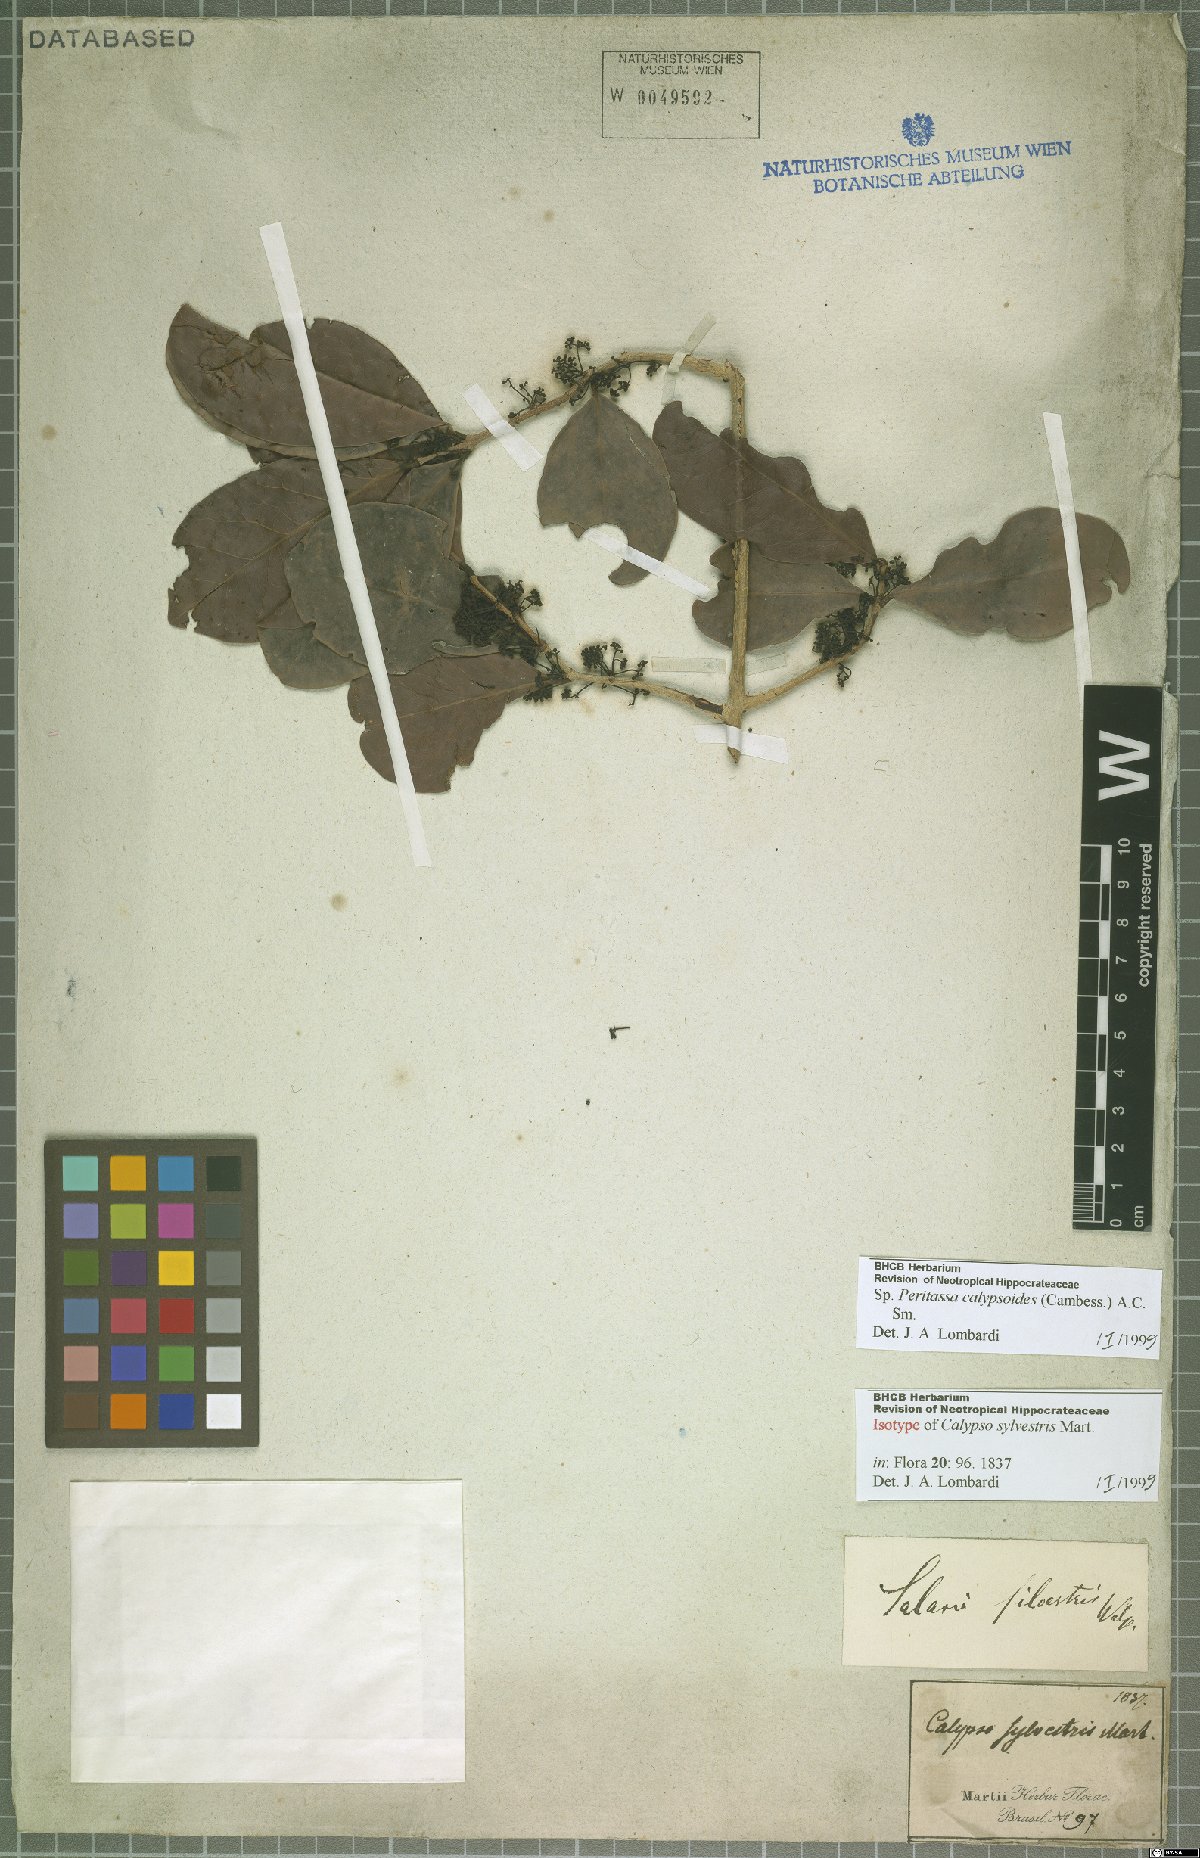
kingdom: Plantae
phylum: Tracheophyta
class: Magnoliopsida
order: Celastrales
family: Celastraceae
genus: Peritassa
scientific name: Peritassa calypsoides
